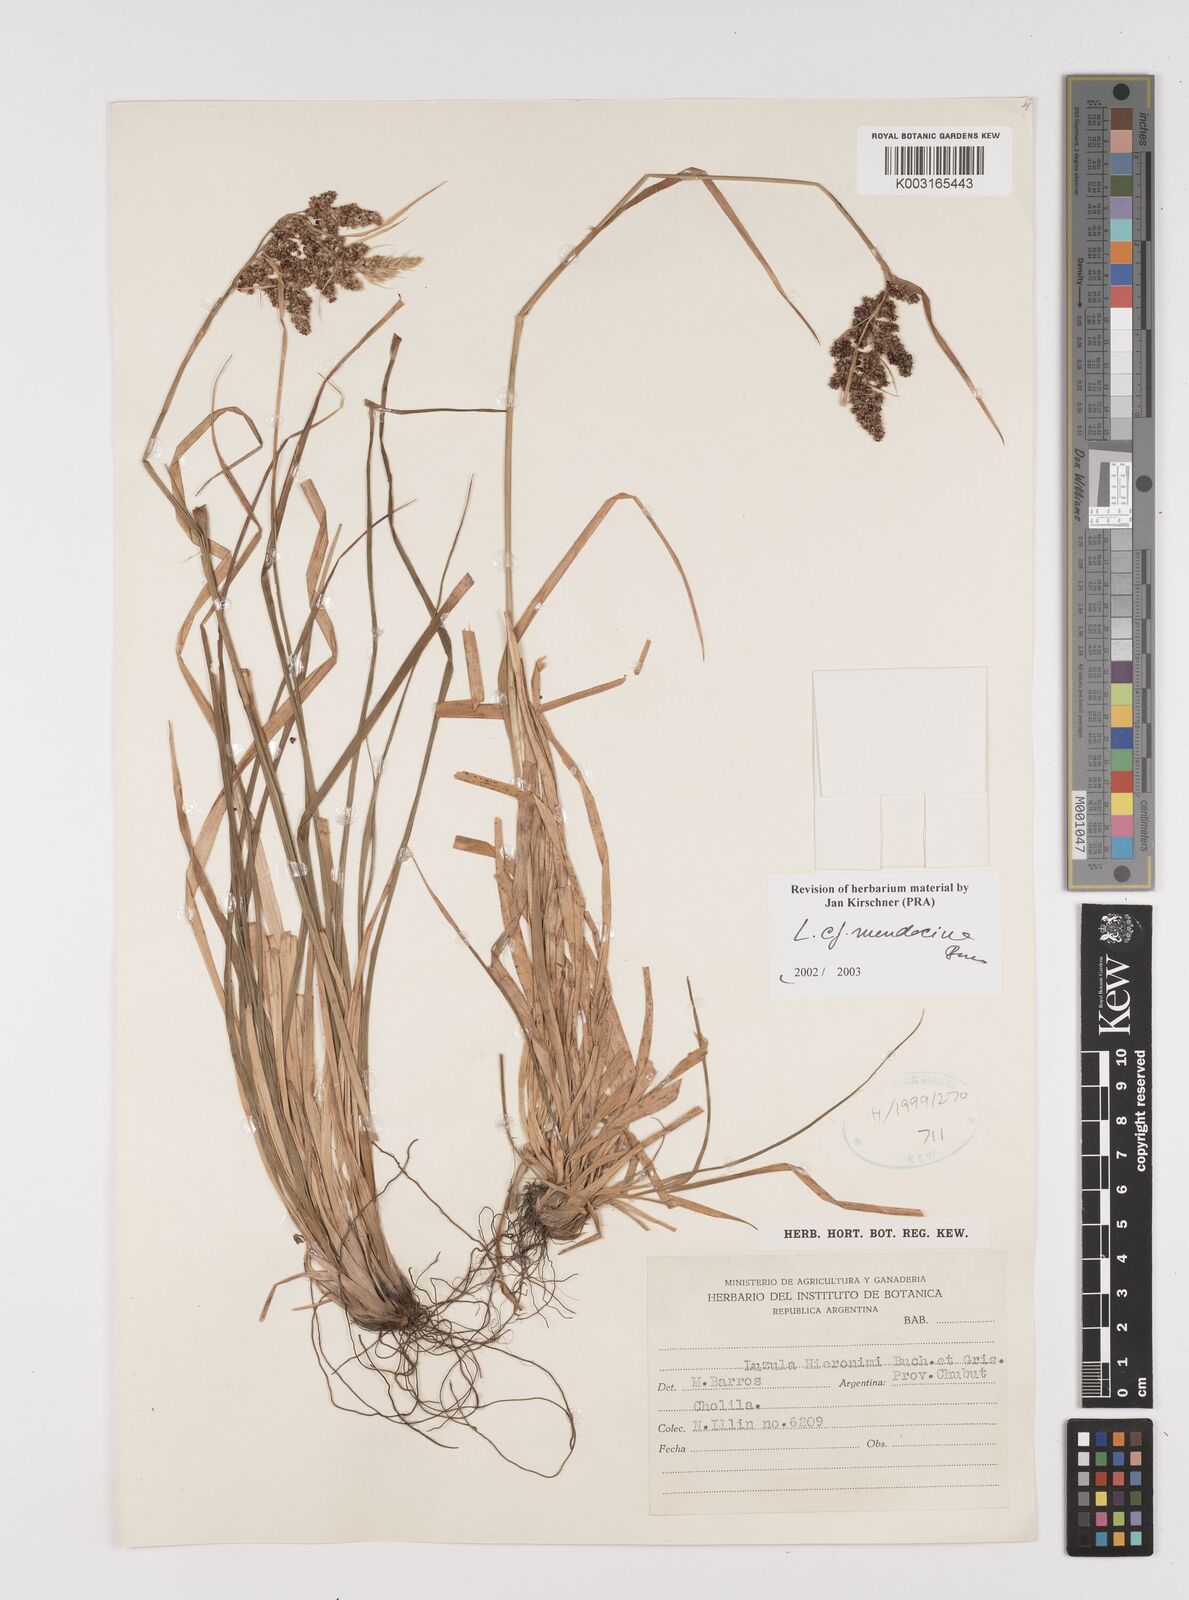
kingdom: Plantae
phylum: Tracheophyta
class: Liliopsida
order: Poales
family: Juncaceae
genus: Luzula
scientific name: Luzula mendocina
